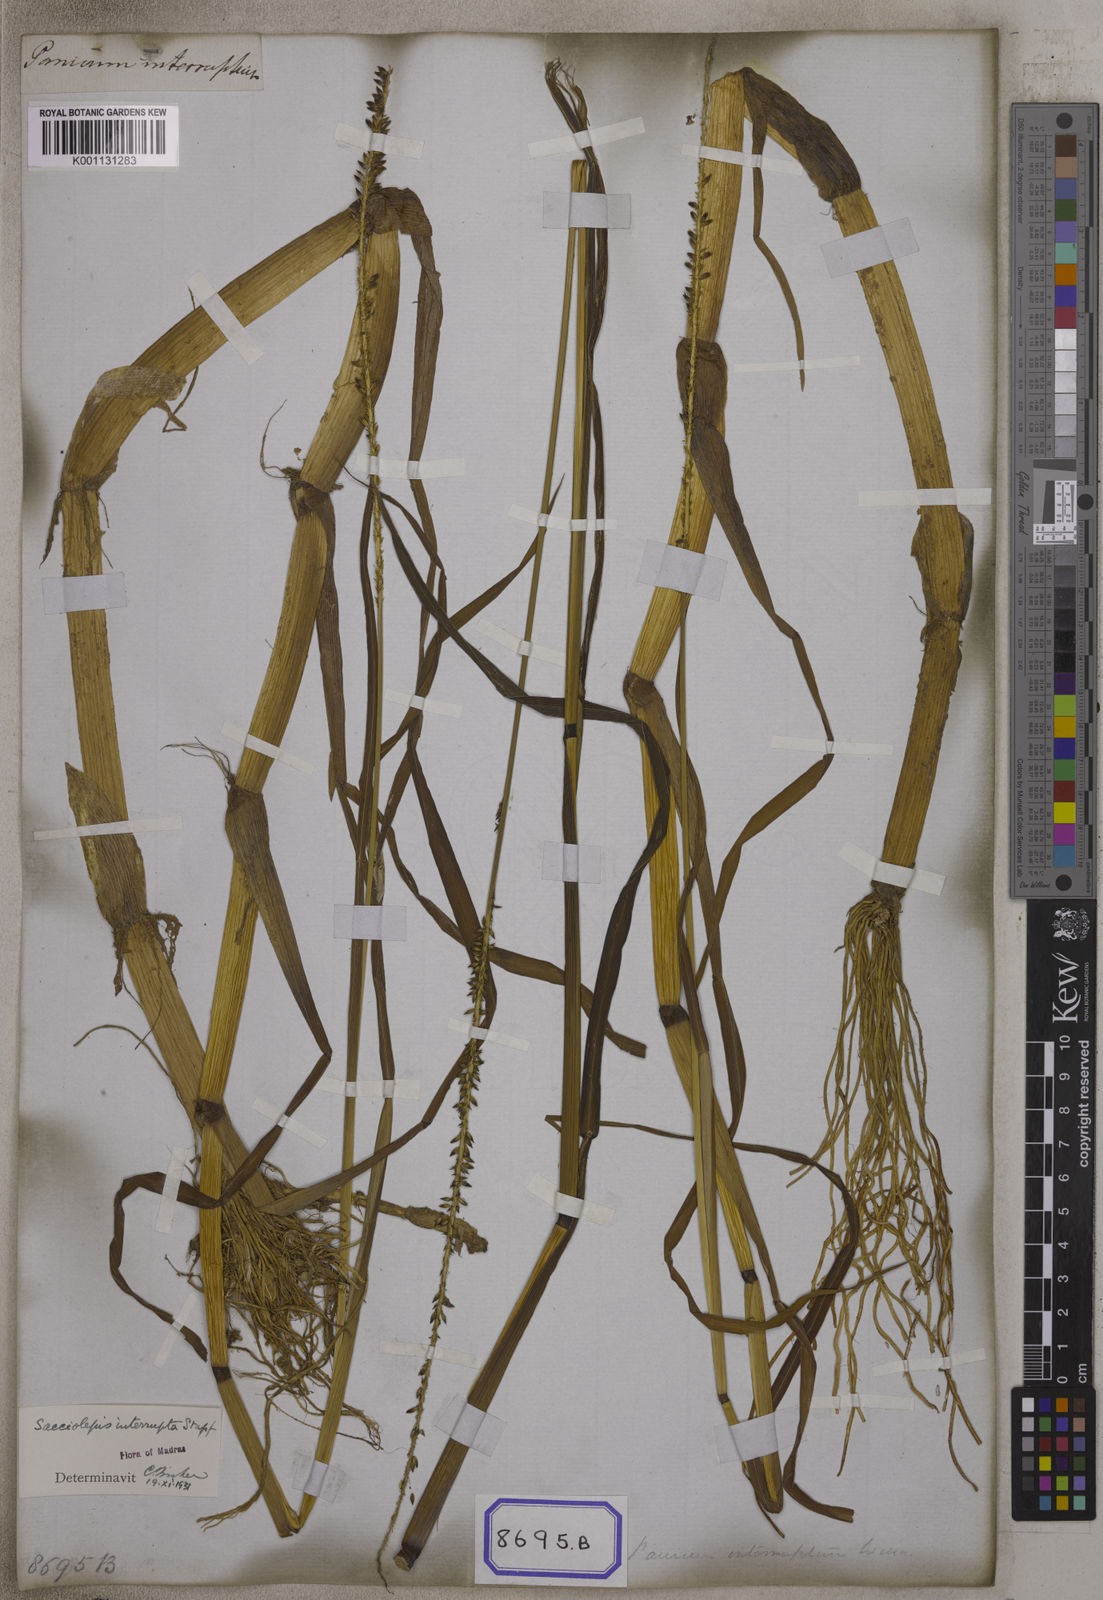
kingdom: Plantae
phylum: Tracheophyta
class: Liliopsida
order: Poales
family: Poaceae
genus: Sacciolepis
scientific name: Sacciolepis interrupta
